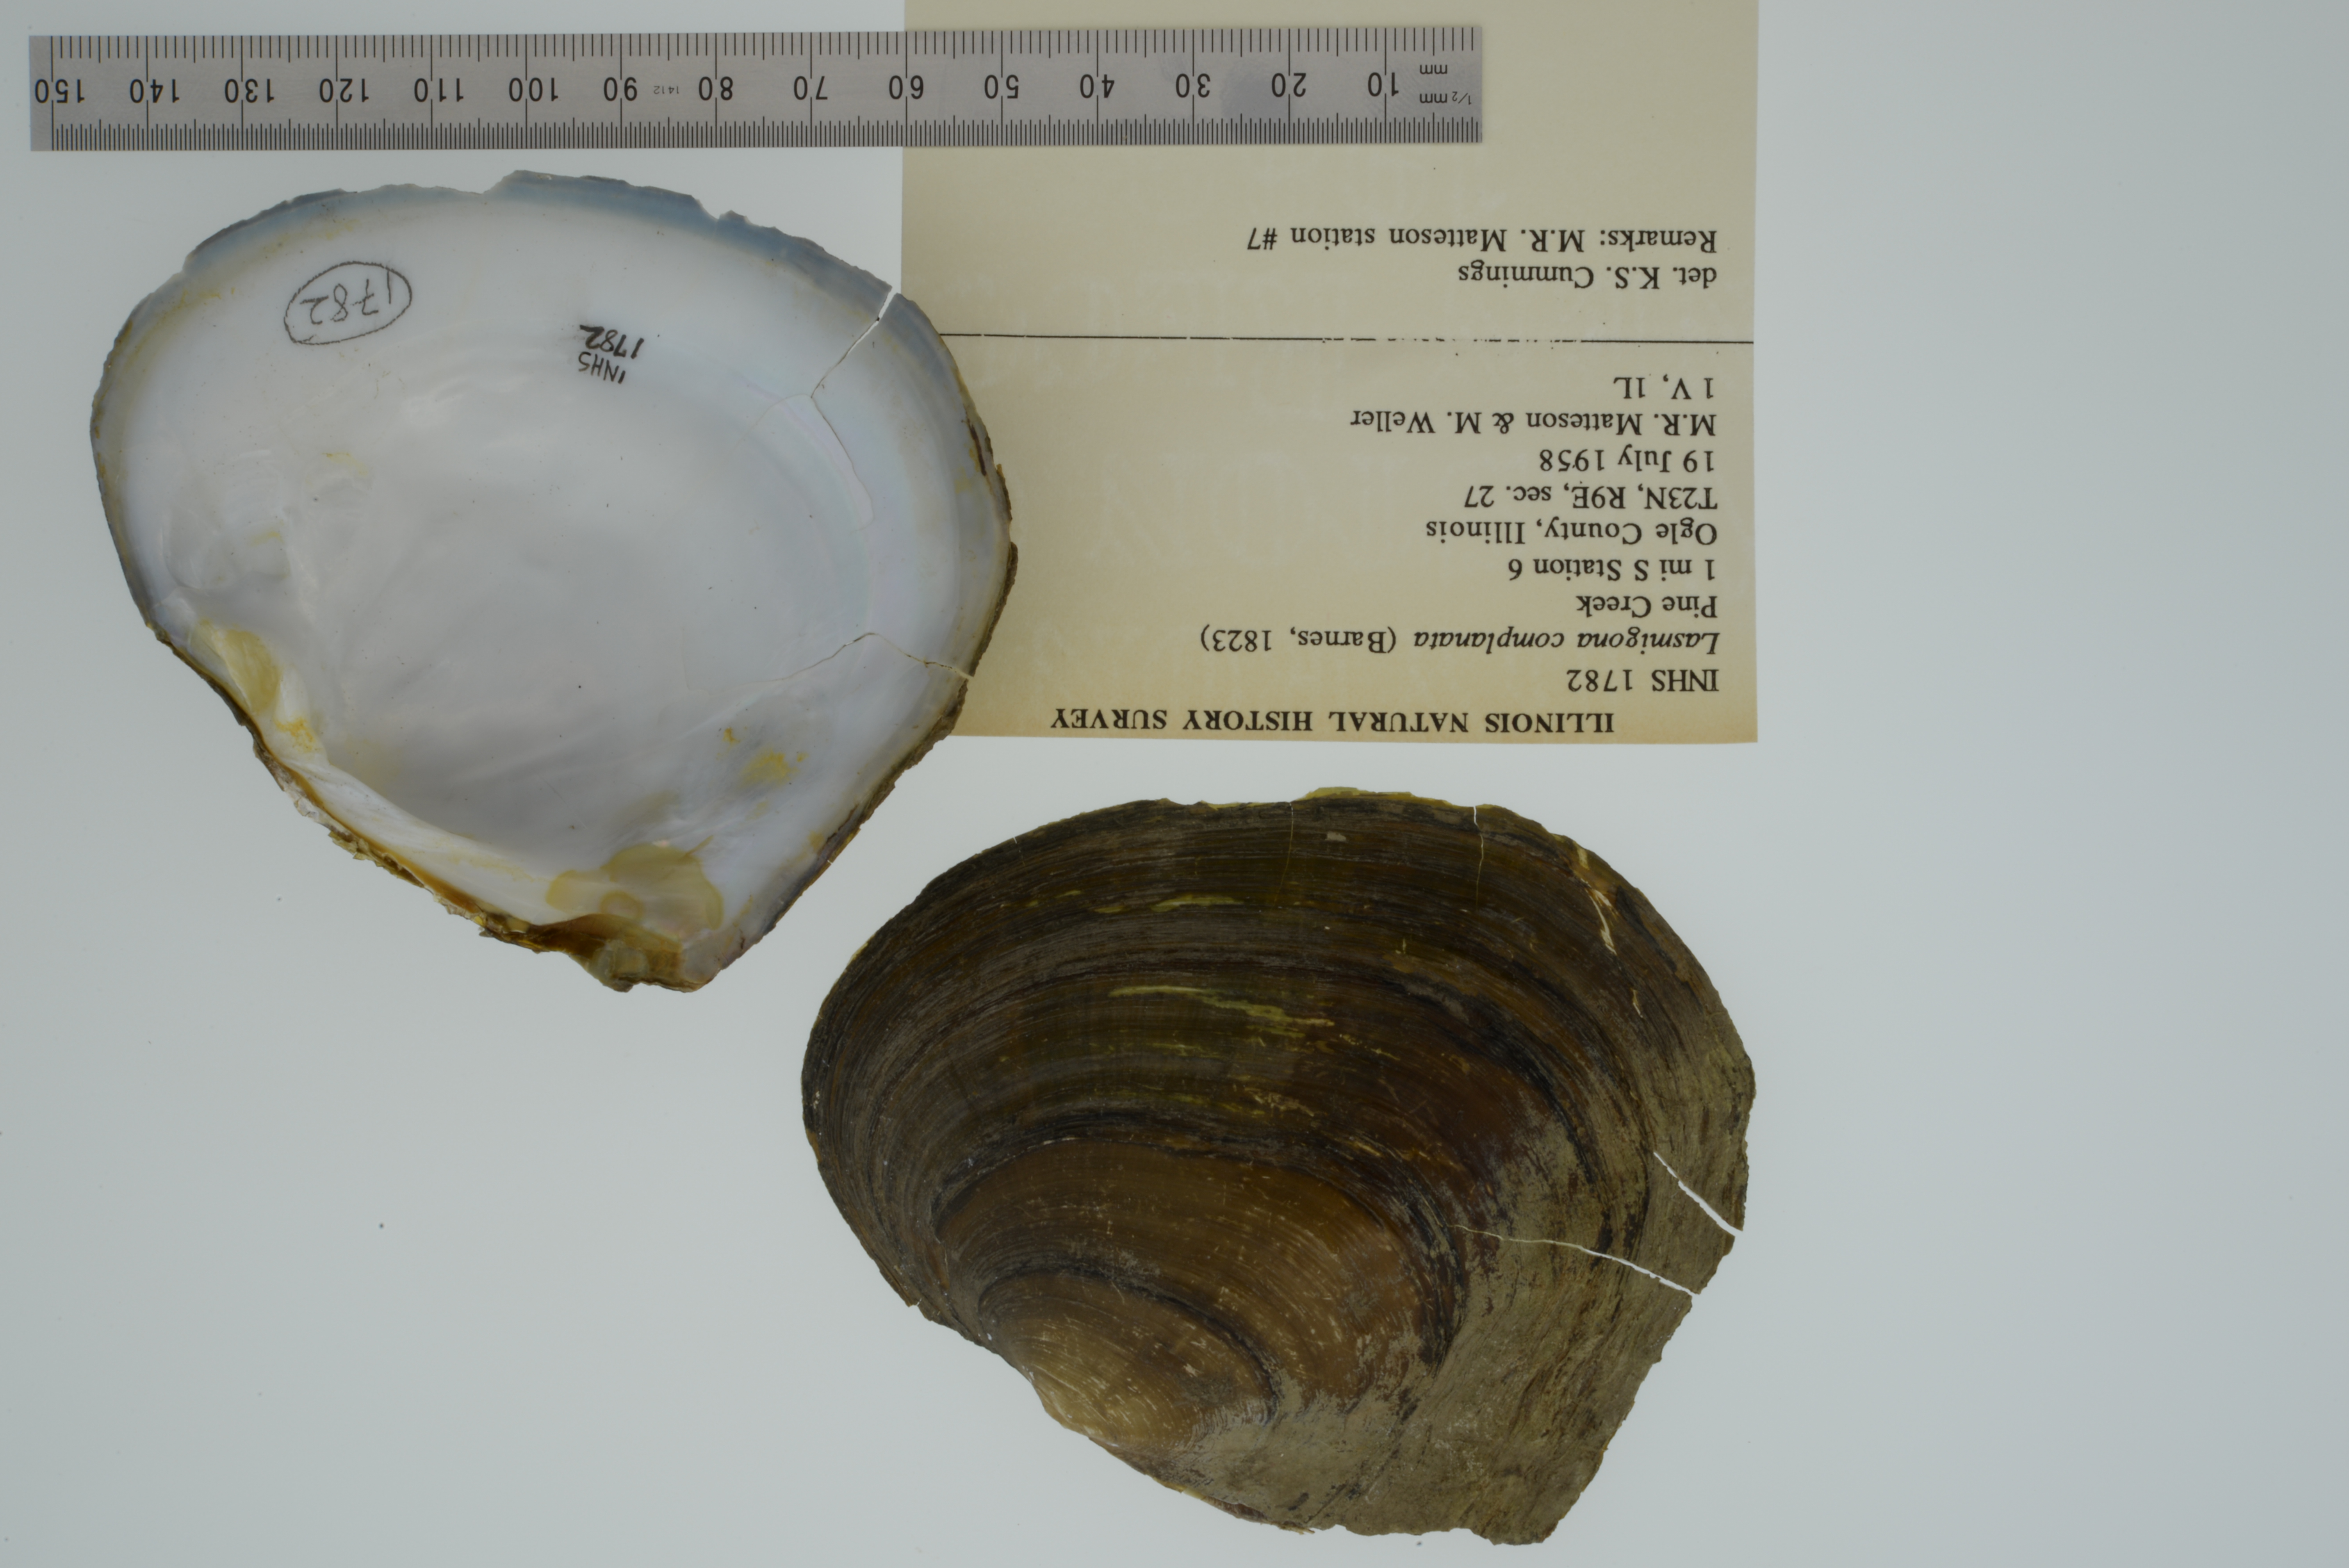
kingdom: Animalia
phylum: Mollusca
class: Bivalvia
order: Unionida
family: Unionidae
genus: Lasmigona
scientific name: Lasmigona complanata
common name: White heelsplitter
